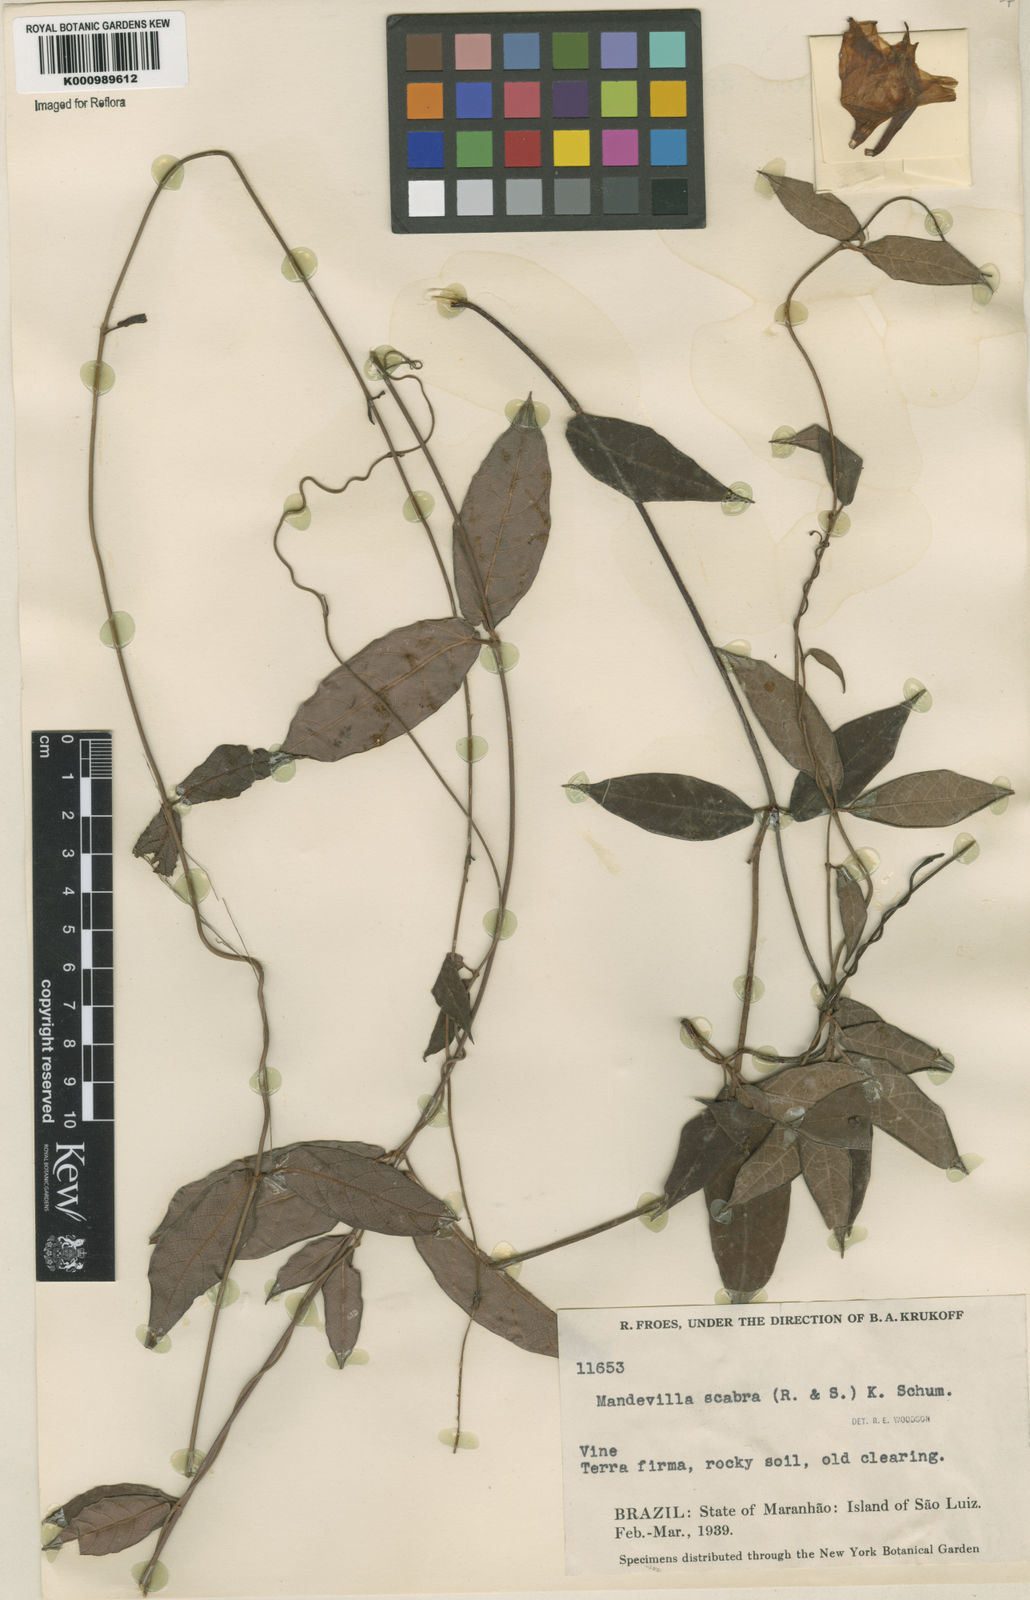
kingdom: Plantae
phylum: Tracheophyta
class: Magnoliopsida
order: Gentianales
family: Apocynaceae
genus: Mandevilla
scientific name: Mandevilla scabra
